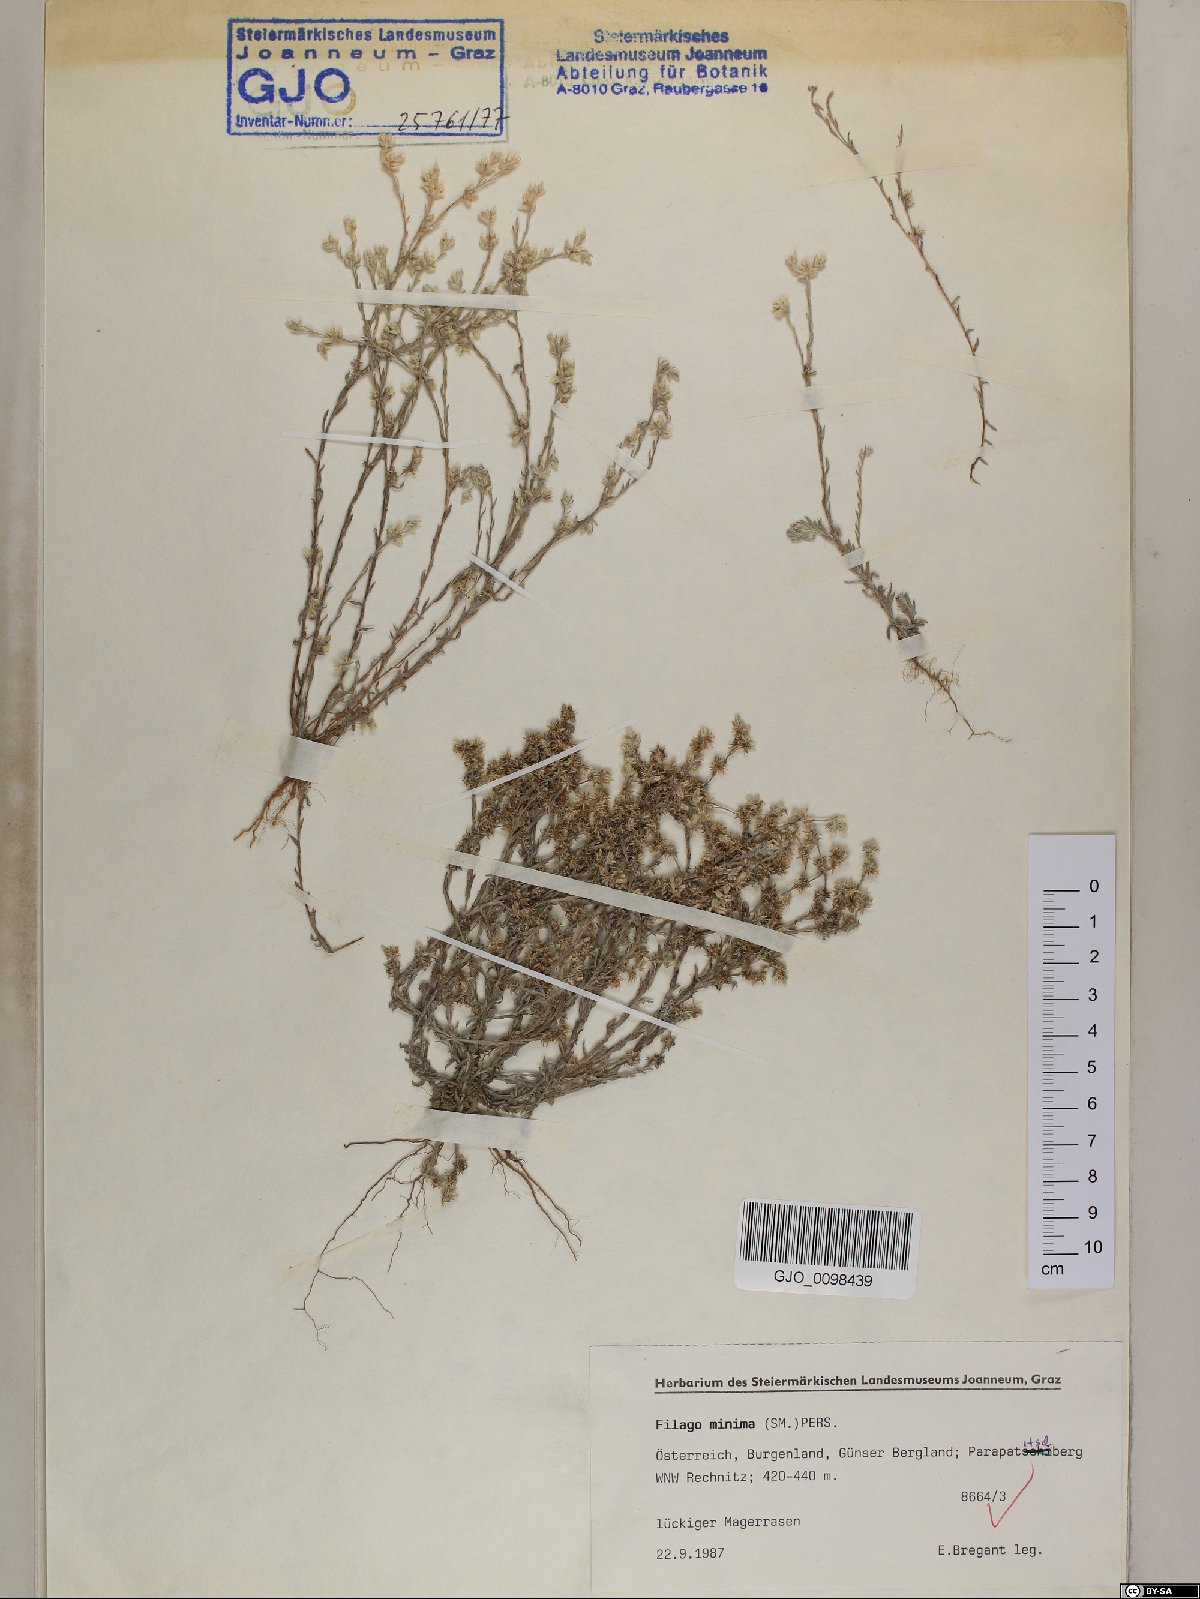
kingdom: Plantae
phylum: Tracheophyta
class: Magnoliopsida
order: Asterales
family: Asteraceae
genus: Logfia
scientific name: Logfia minima
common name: Little cottonrose
